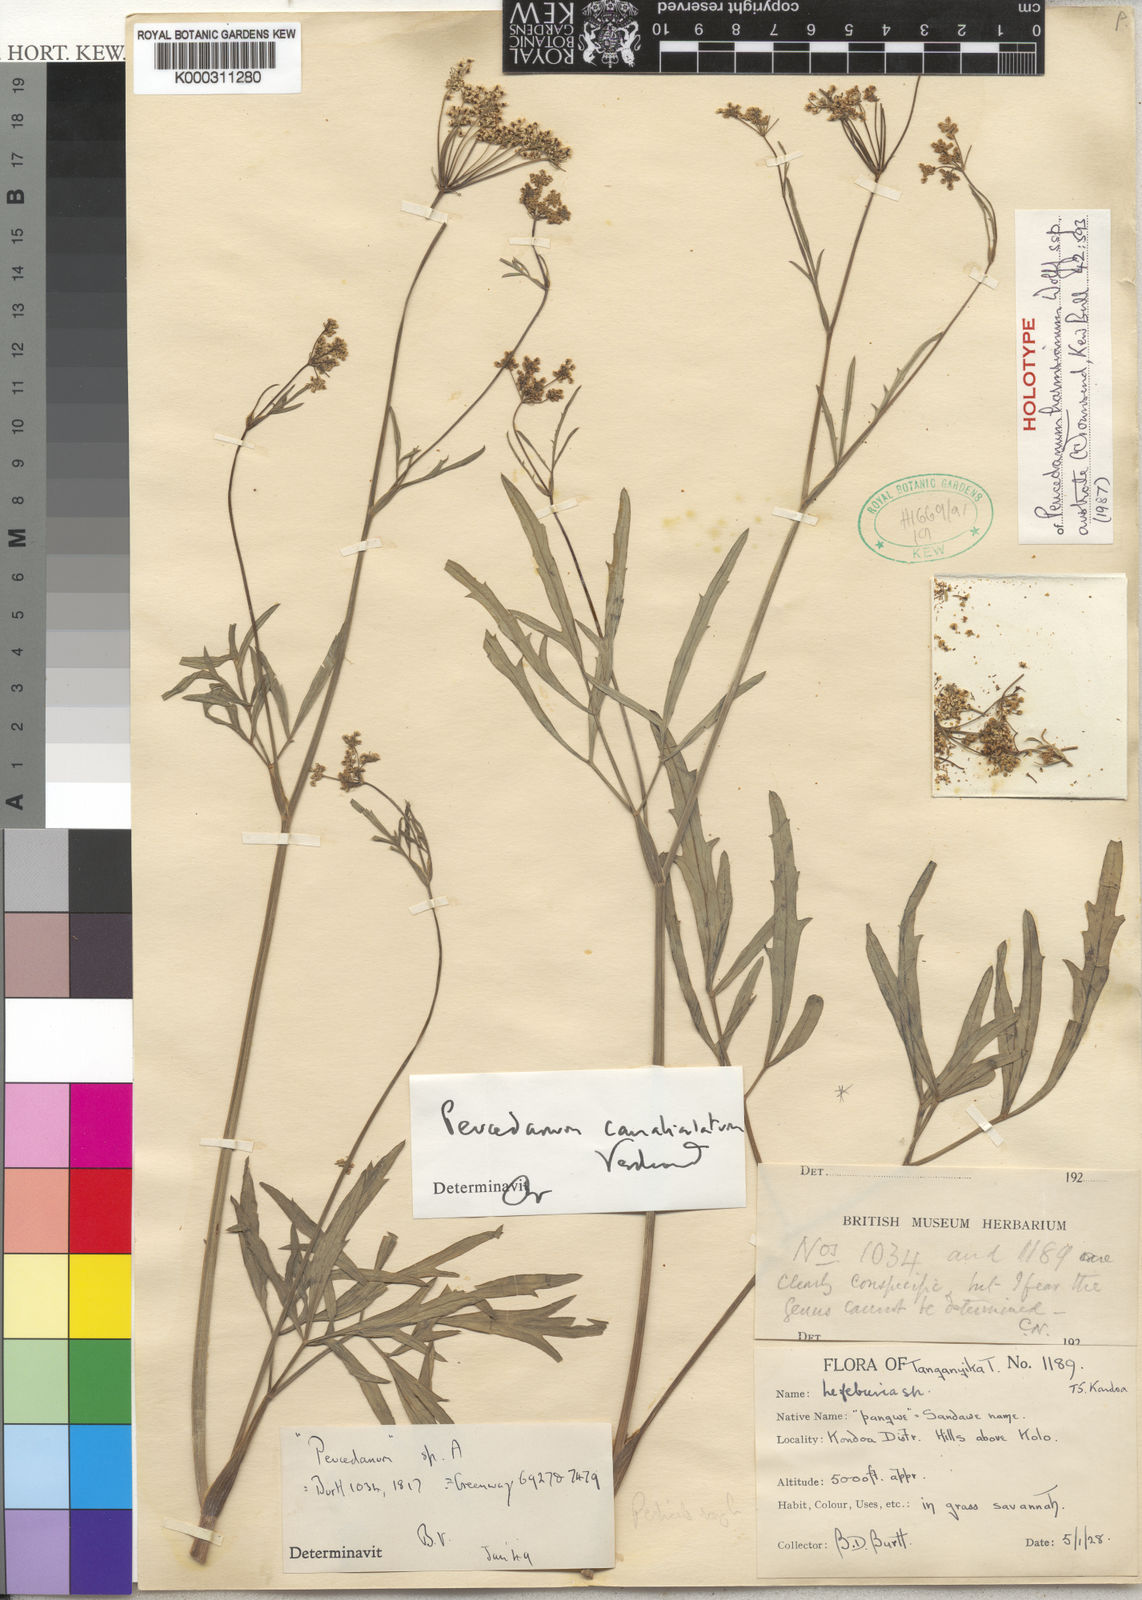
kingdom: Plantae
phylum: Tracheophyta
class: Magnoliopsida
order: Apiales
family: Apiaceae
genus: Afrosciadium
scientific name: Afrosciadium harmsianum
